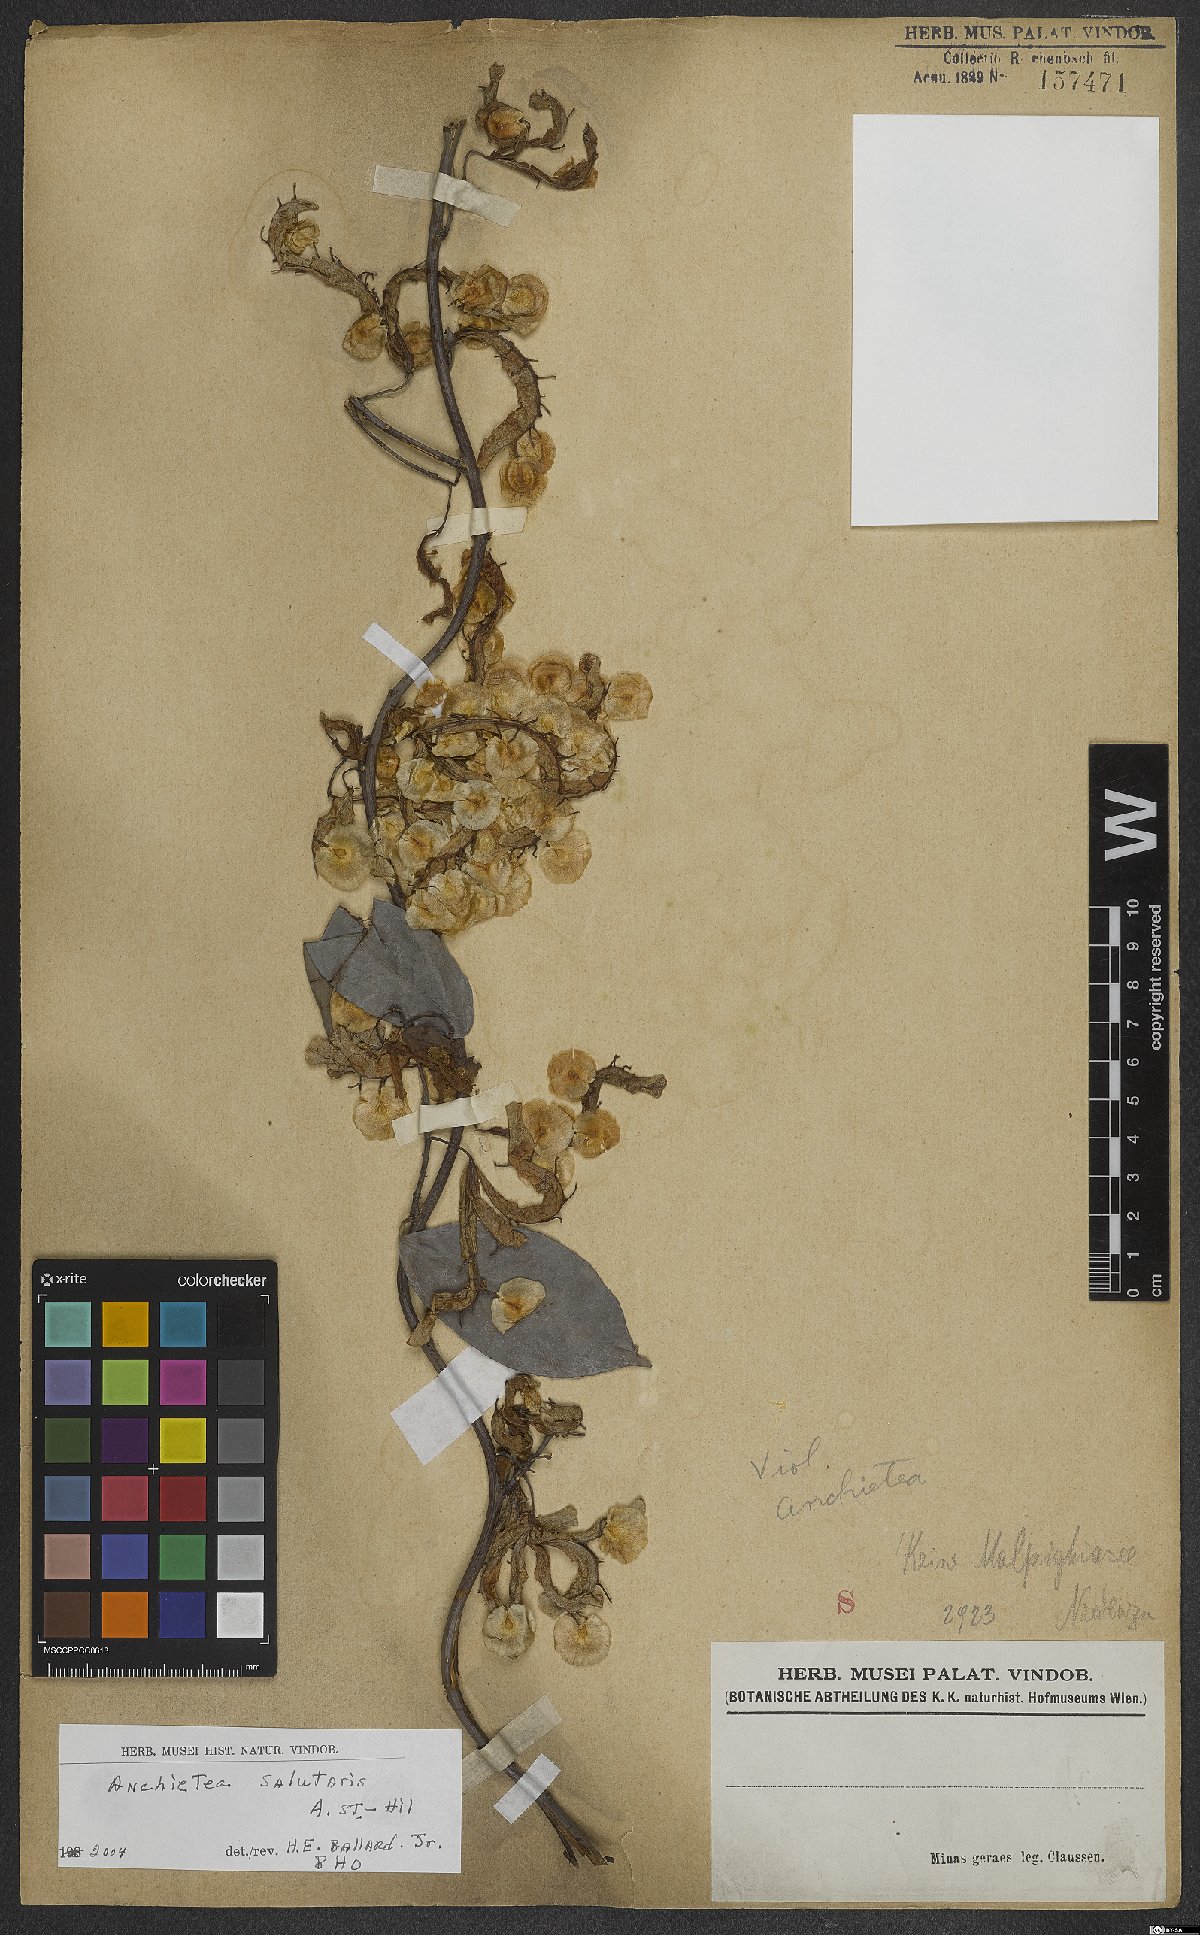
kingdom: Plantae
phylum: Tracheophyta
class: Magnoliopsida
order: Malpighiales
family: Violaceae
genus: Anchietea
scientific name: Anchietea pyrifolia
